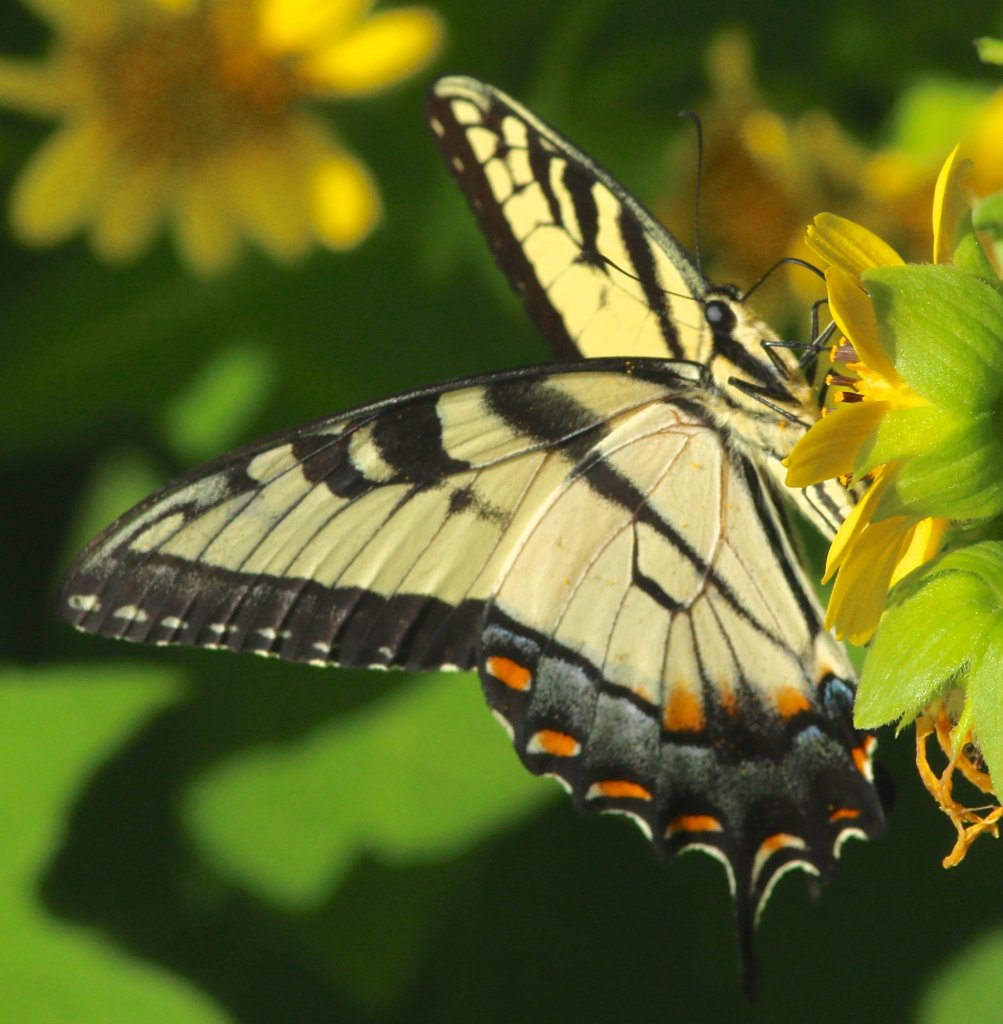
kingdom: Animalia
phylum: Arthropoda
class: Insecta
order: Lepidoptera
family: Papilionidae
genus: Pterourus
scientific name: Pterourus glaucus
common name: Eastern Tiger Swallowtail
